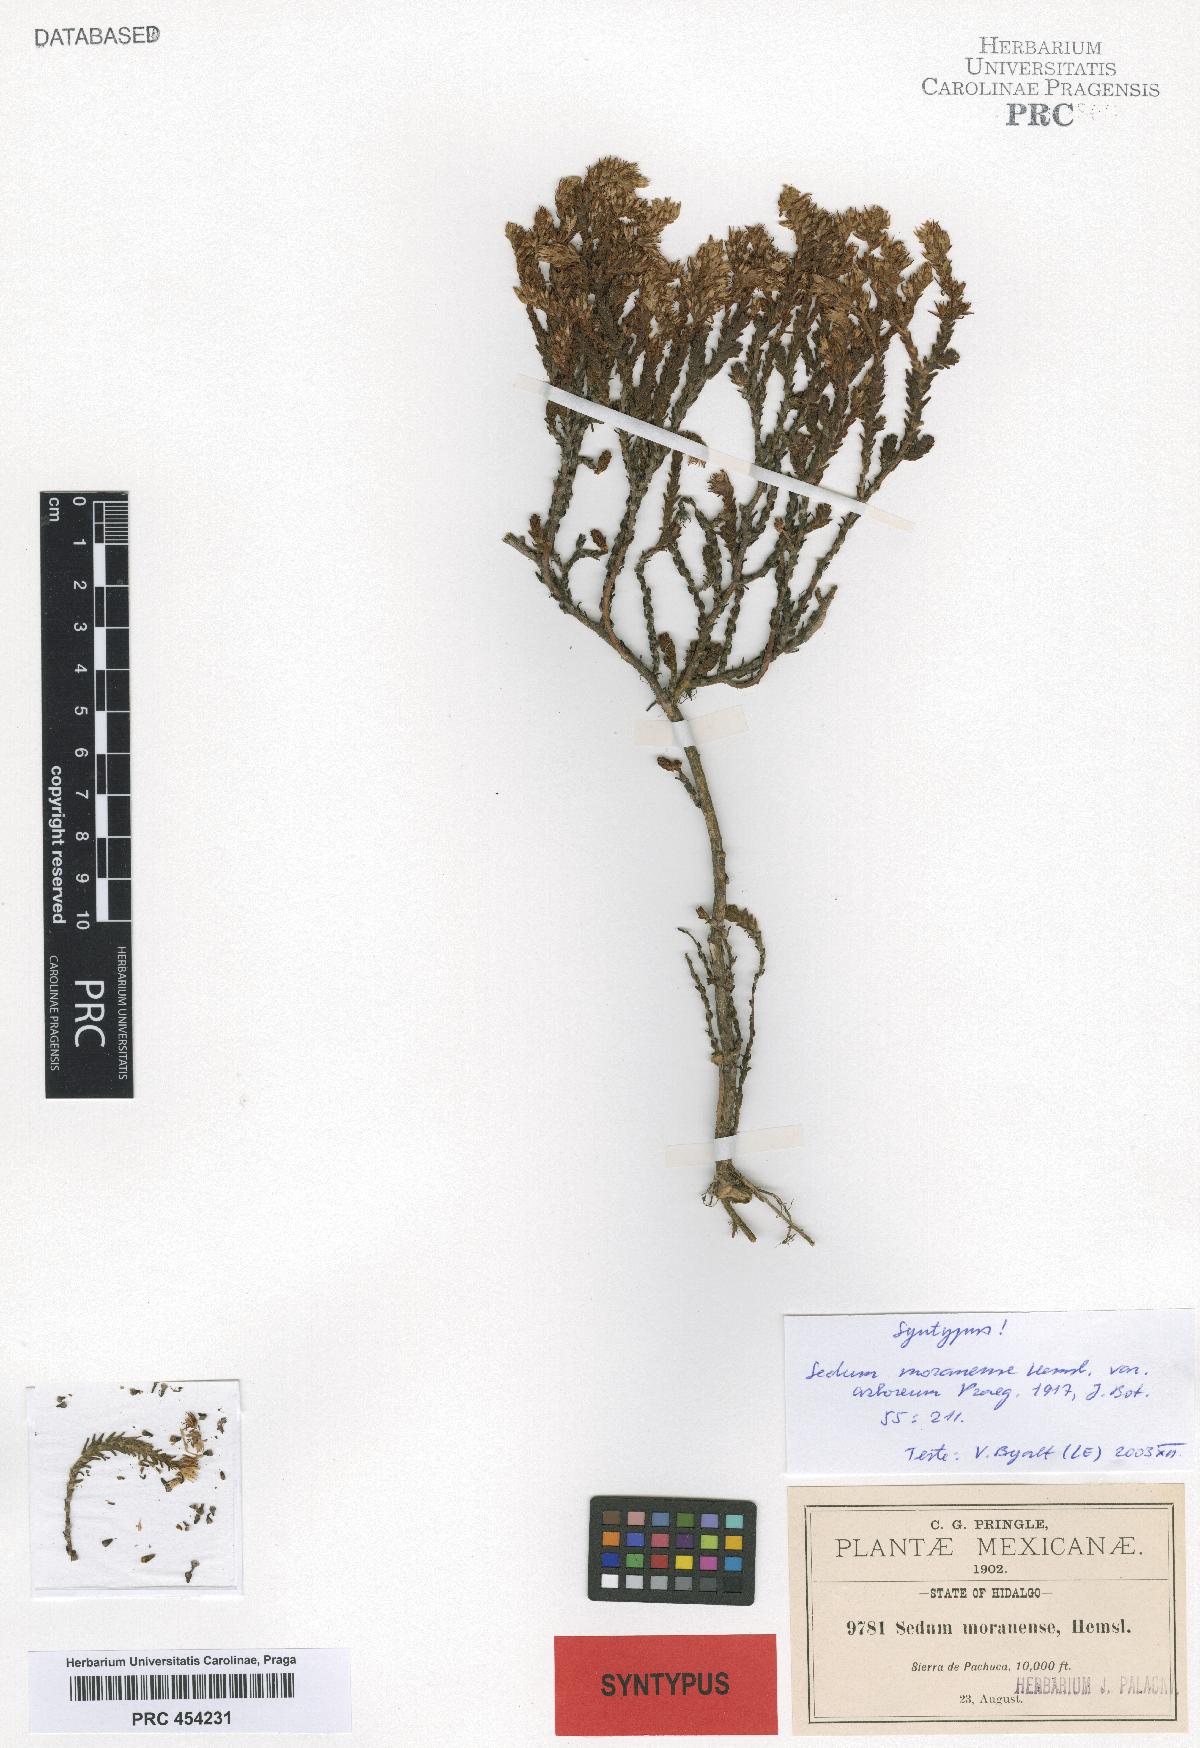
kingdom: Plantae
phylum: Tracheophyta
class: Magnoliopsida
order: Saxifragales
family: Crassulaceae
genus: Sedum
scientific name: Sedum moranense
